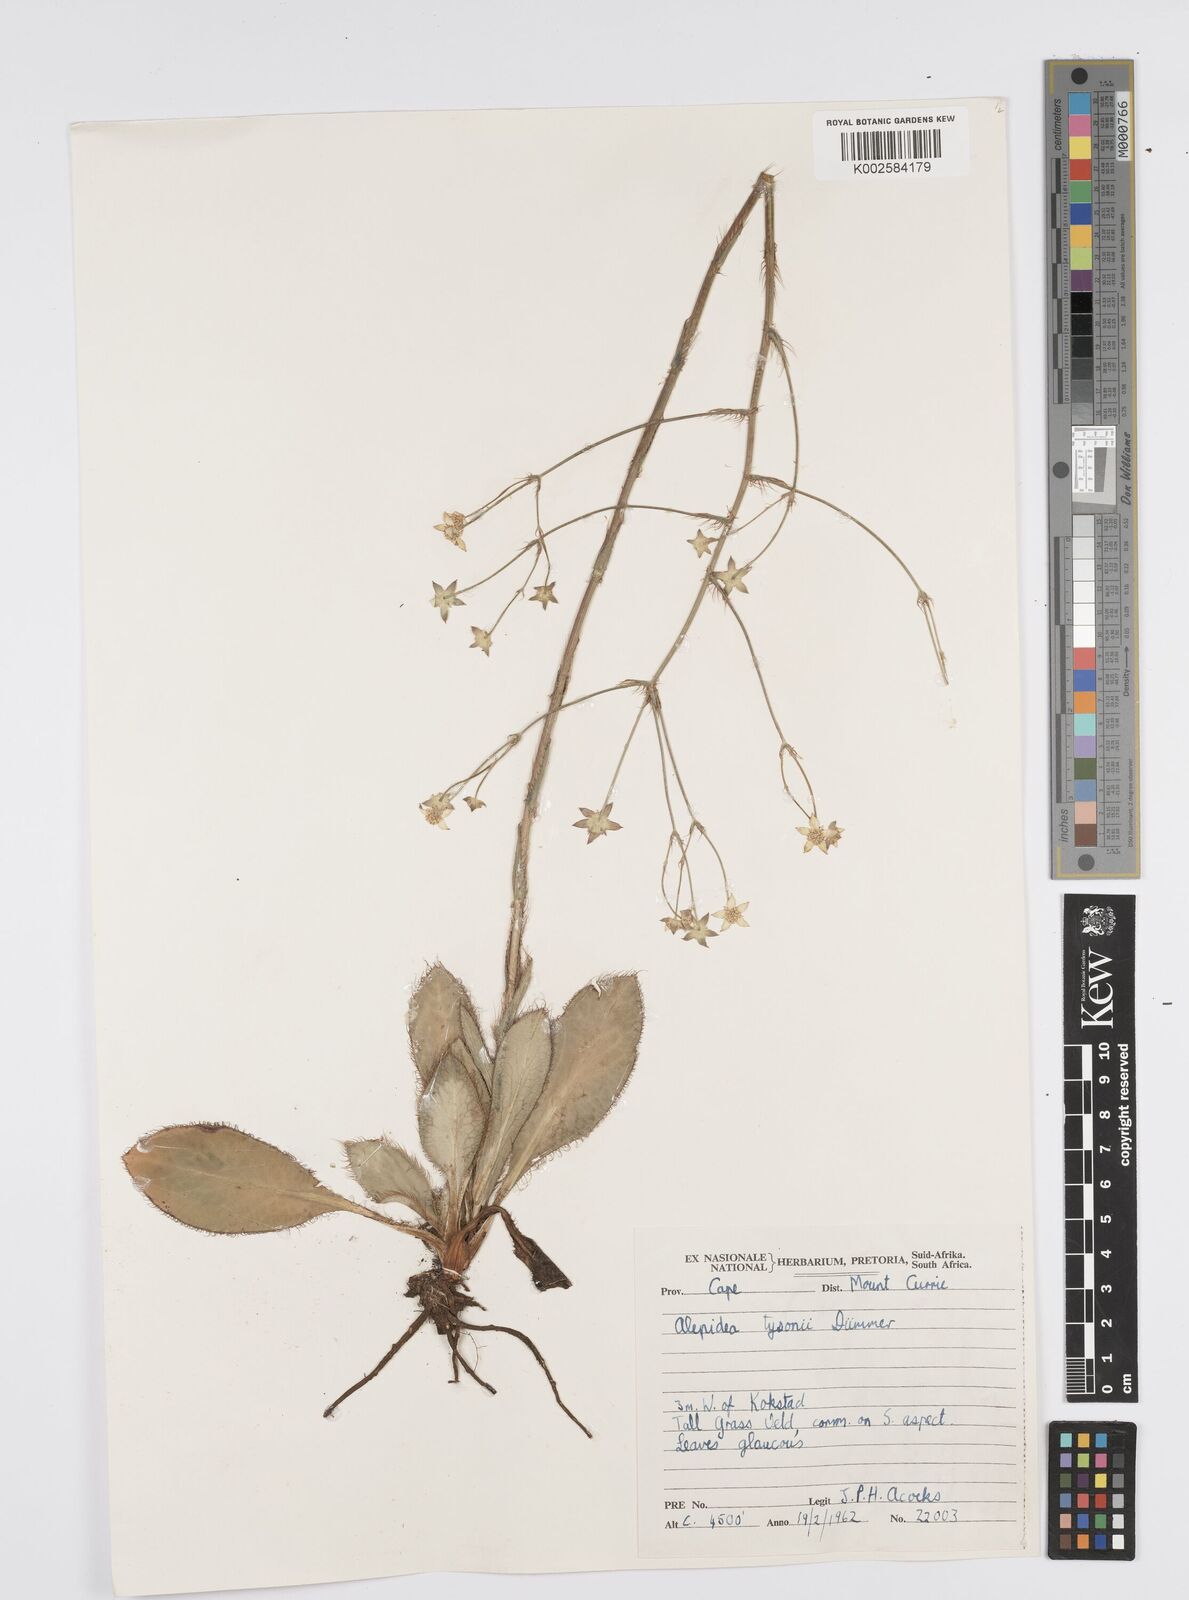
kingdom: Plantae
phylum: Tracheophyta
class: Magnoliopsida
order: Apiales
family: Apiaceae
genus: Alepidea
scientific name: Alepidea natalensis
